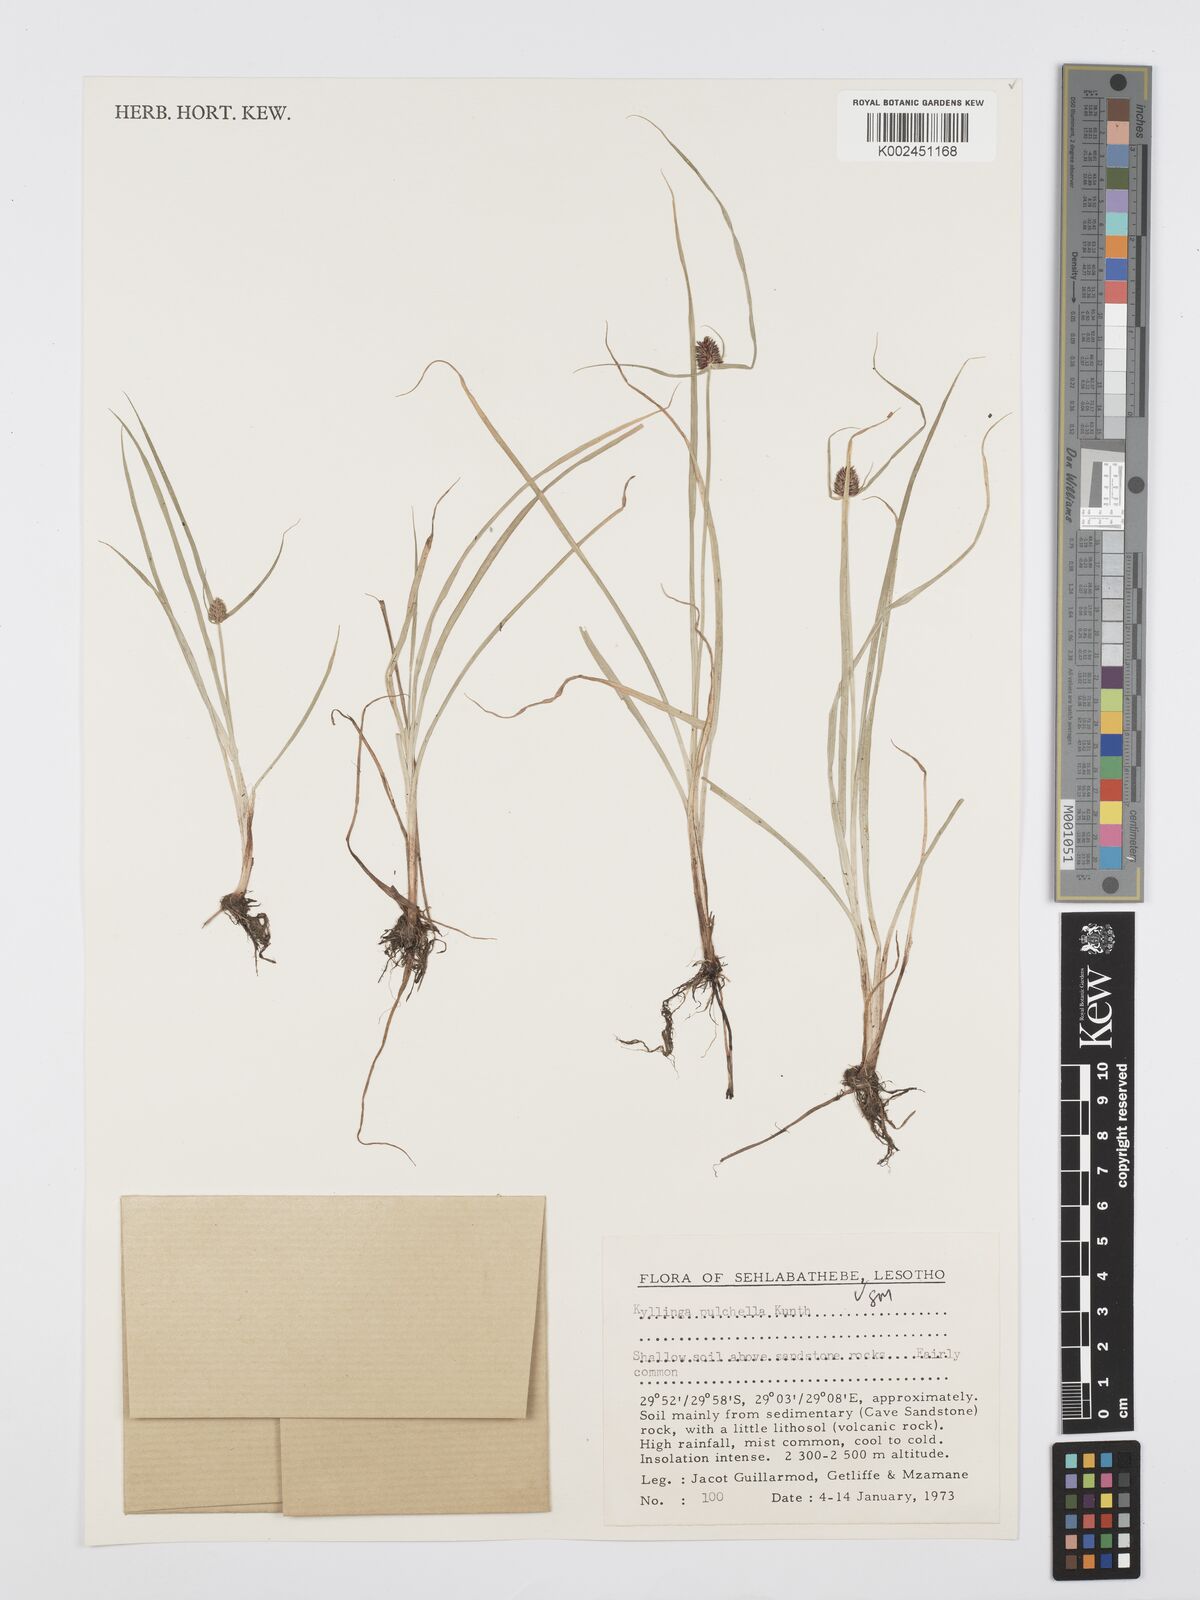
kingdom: Plantae
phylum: Tracheophyta
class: Liliopsida
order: Poales
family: Cyperaceae
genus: Cyperus
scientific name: Cyperus bracheilema
